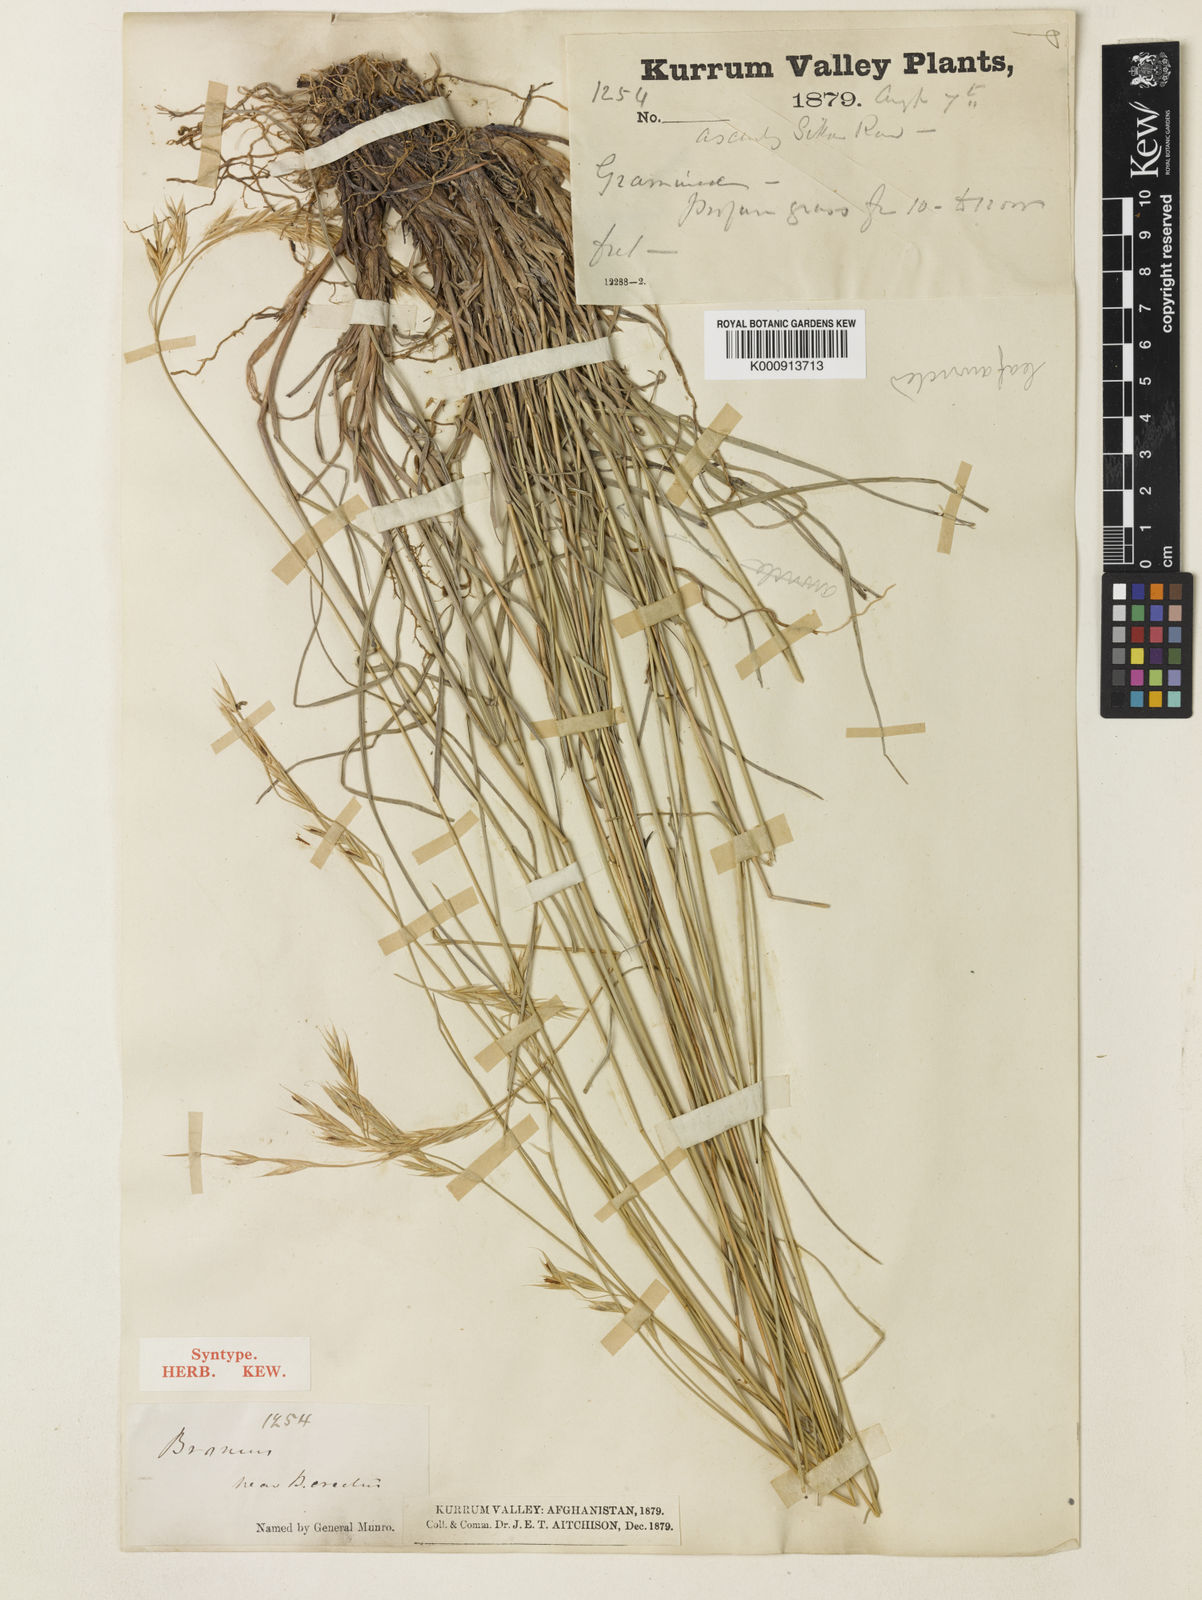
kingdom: Plantae
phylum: Tracheophyta
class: Liliopsida
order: Poales
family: Poaceae
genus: Bromus
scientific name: Bromus stenostachyus
